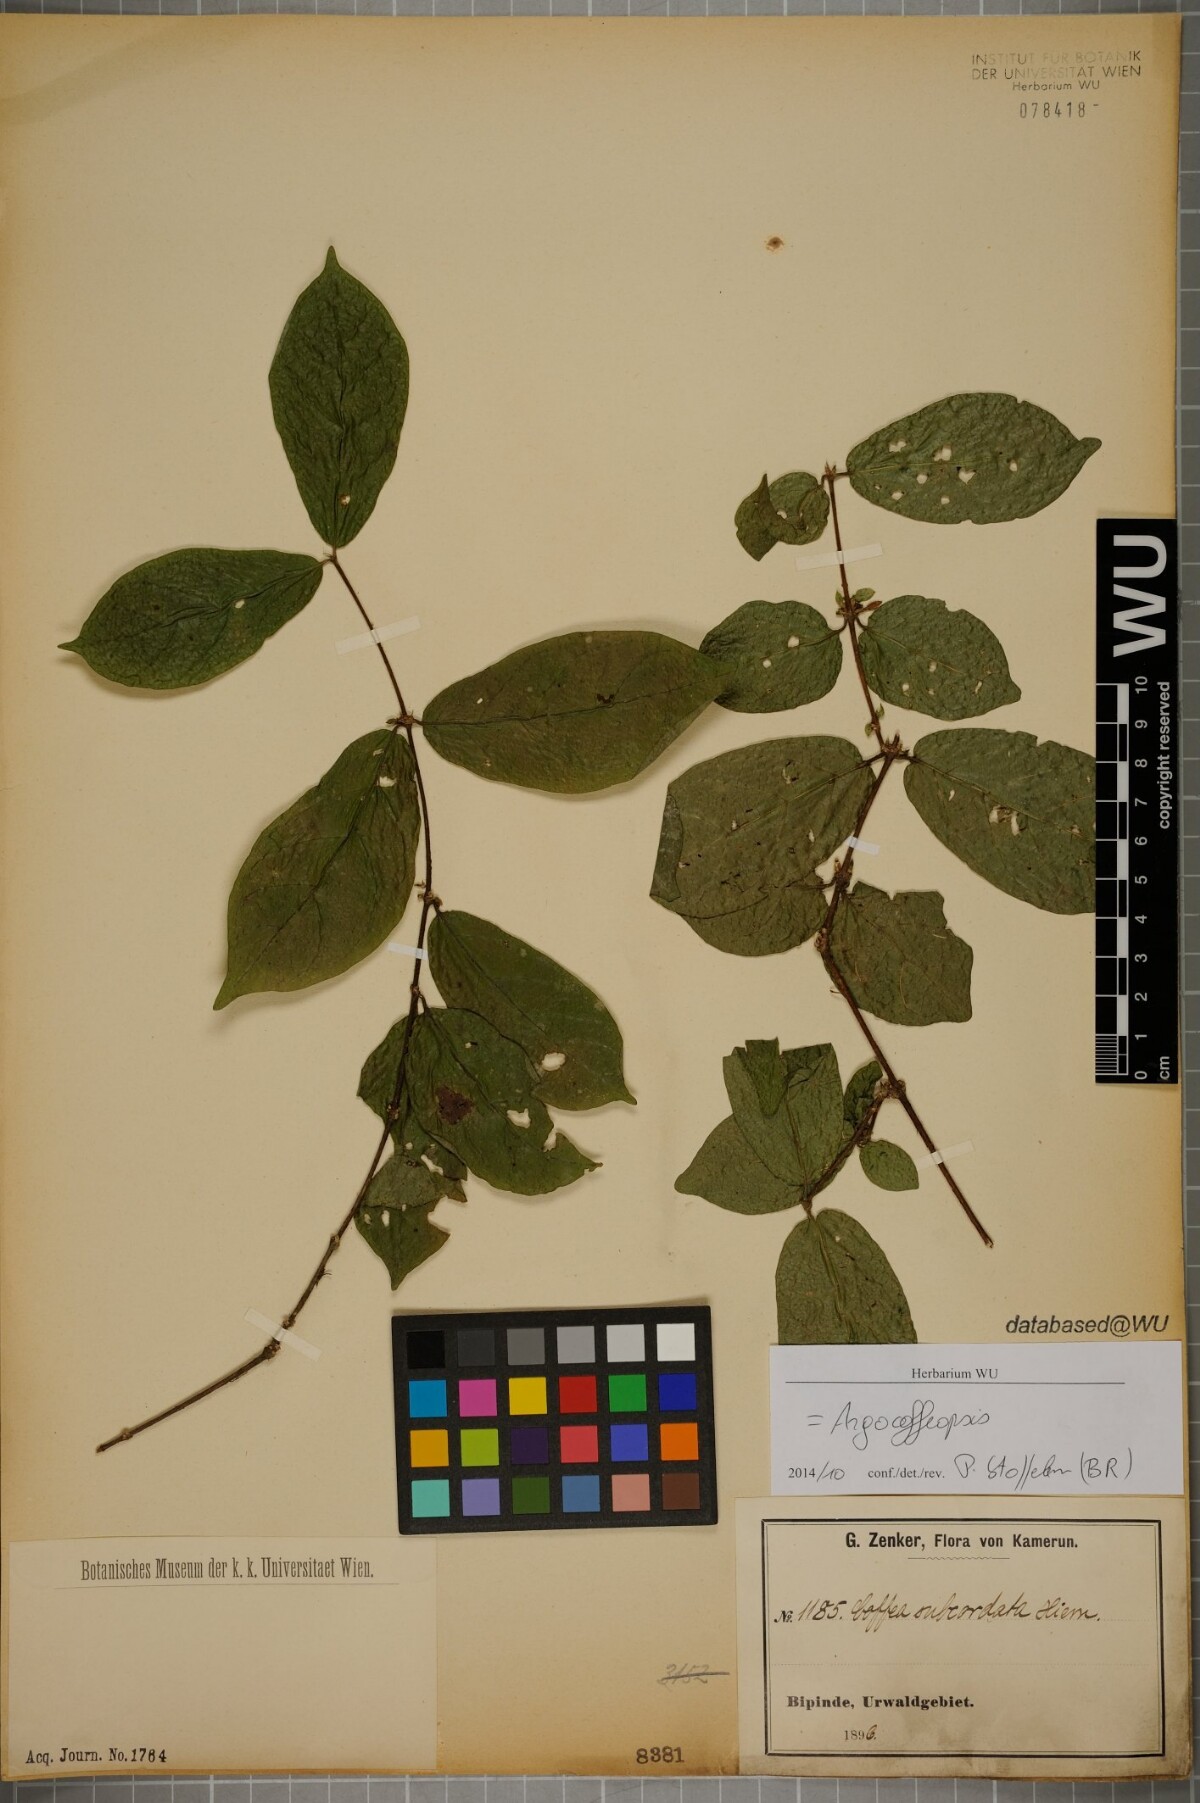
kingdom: Plantae
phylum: Tracheophyta
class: Magnoliopsida
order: Gentianales
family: Rubiaceae
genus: Argocoffeopsis
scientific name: Argocoffeopsis subcordata
